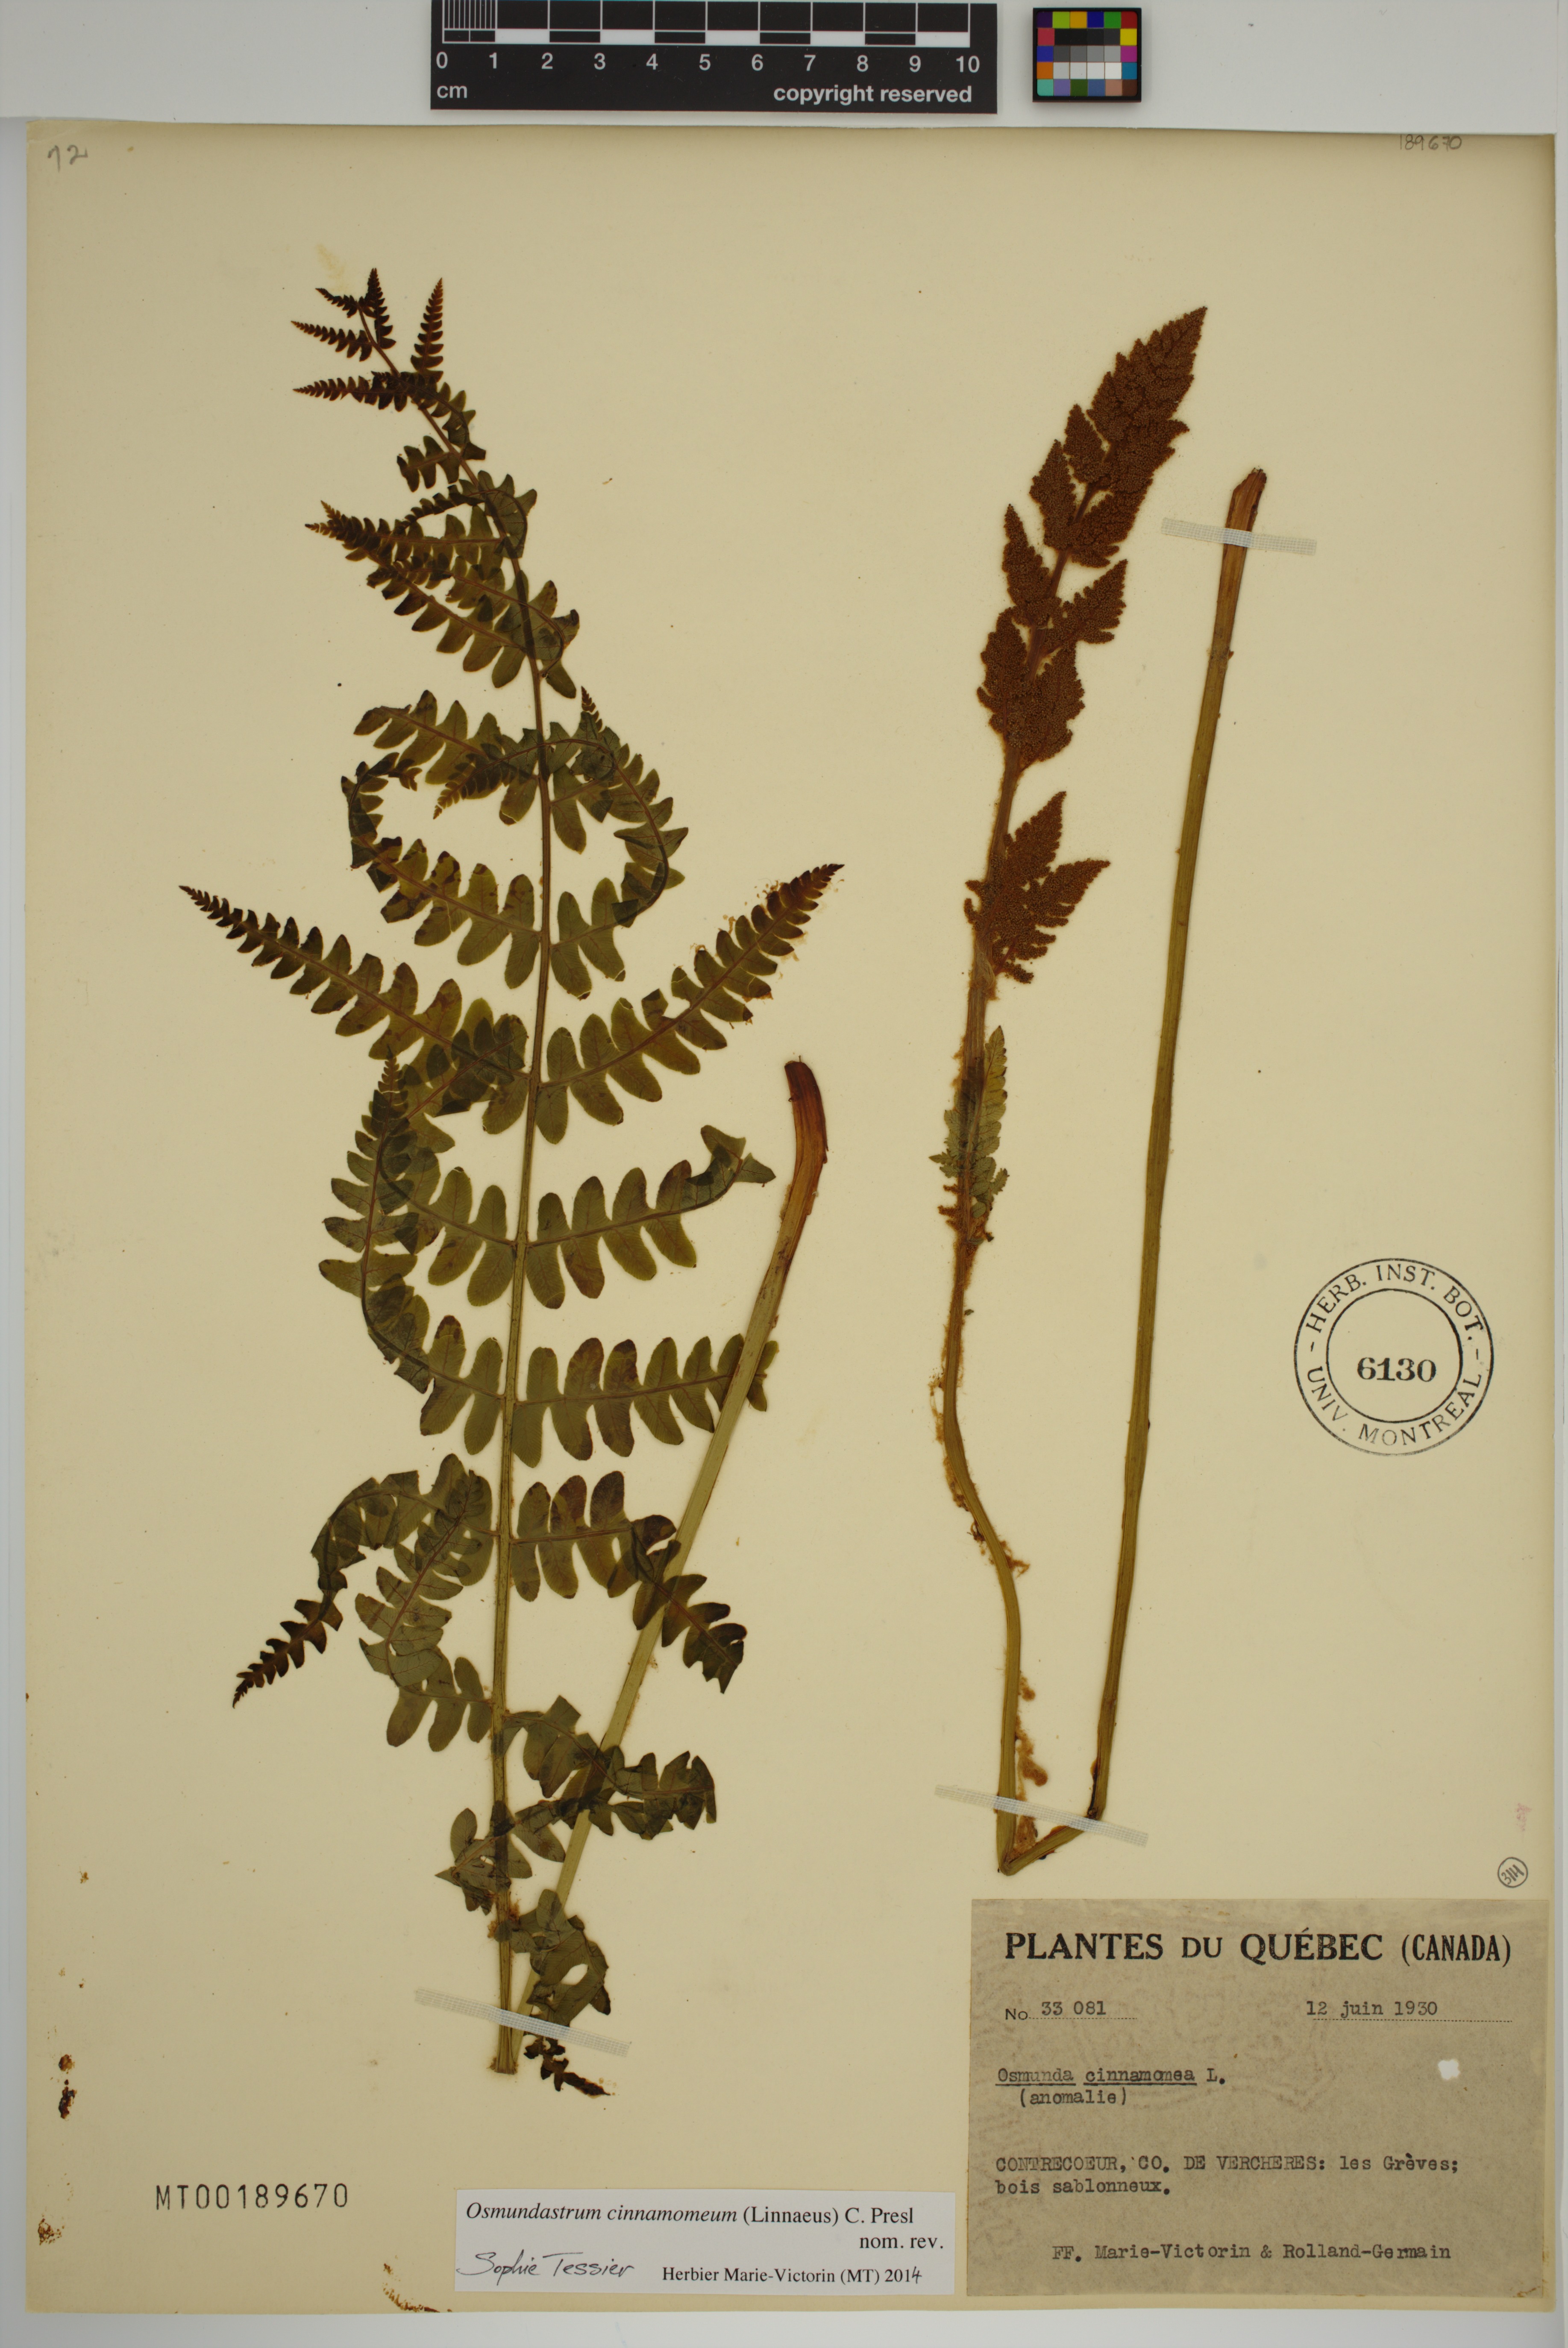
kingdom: Plantae
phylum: Tracheophyta
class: Polypodiopsida
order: Osmundales
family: Osmundaceae
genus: Osmundastrum
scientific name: Osmundastrum cinnamomeum
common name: Cinnamon fern
